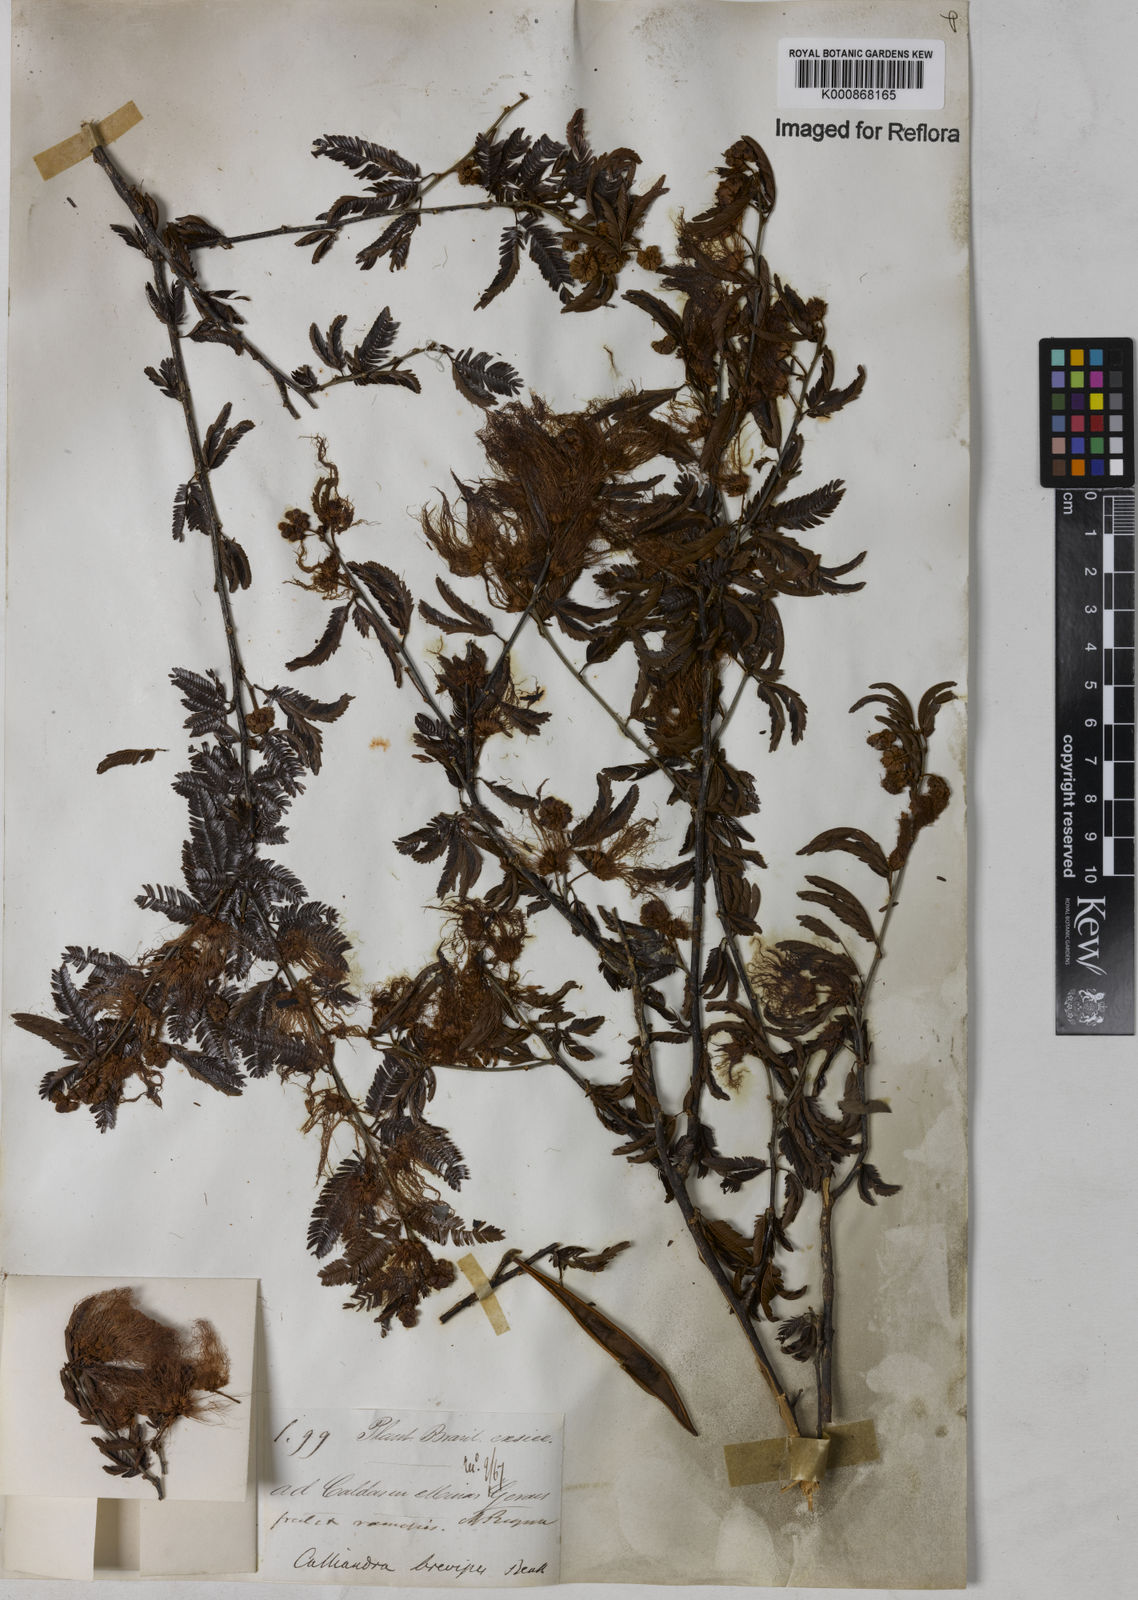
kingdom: Plantae
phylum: Tracheophyta
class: Magnoliopsida
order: Fabales
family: Fabaceae
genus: Calliandra
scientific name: Calliandra selloi
